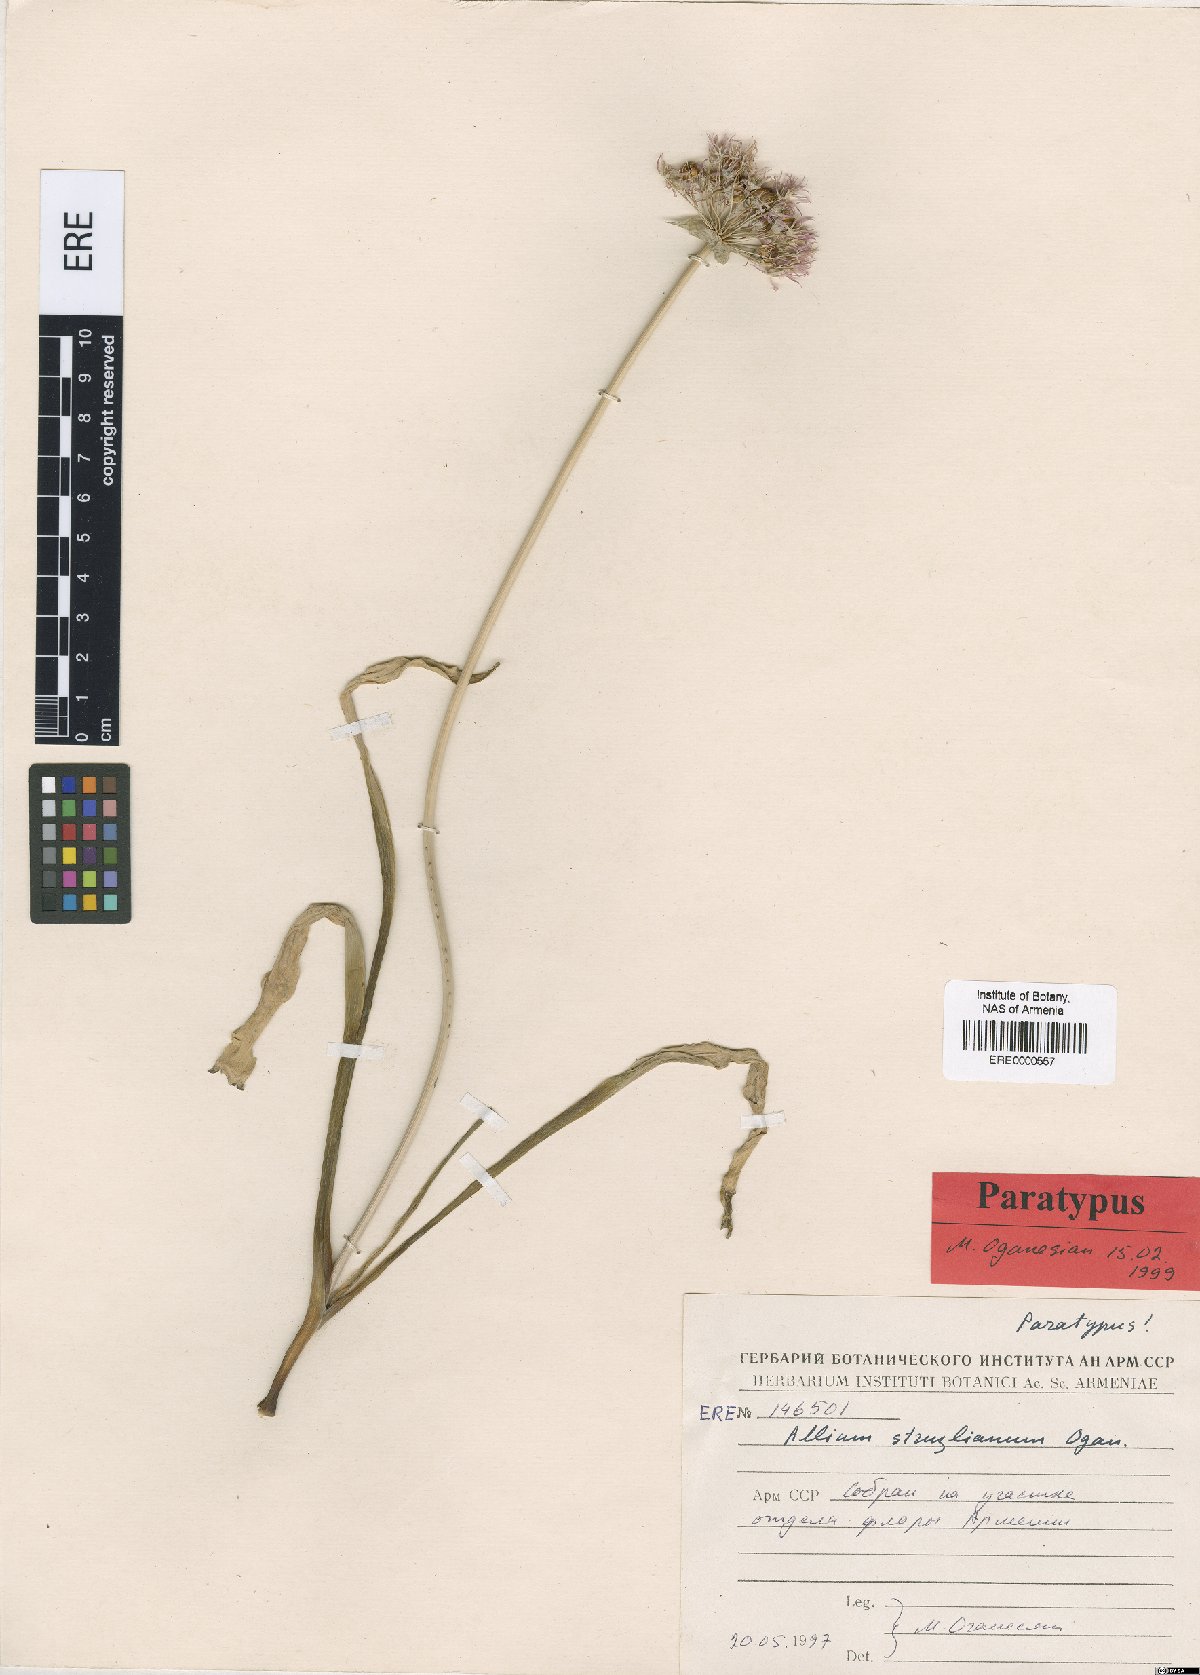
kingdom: Plantae
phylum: Tracheophyta
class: Liliopsida
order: Asparagales
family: Amaryllidaceae
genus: Allium
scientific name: Allium struzlianum
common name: Struzl's onion
